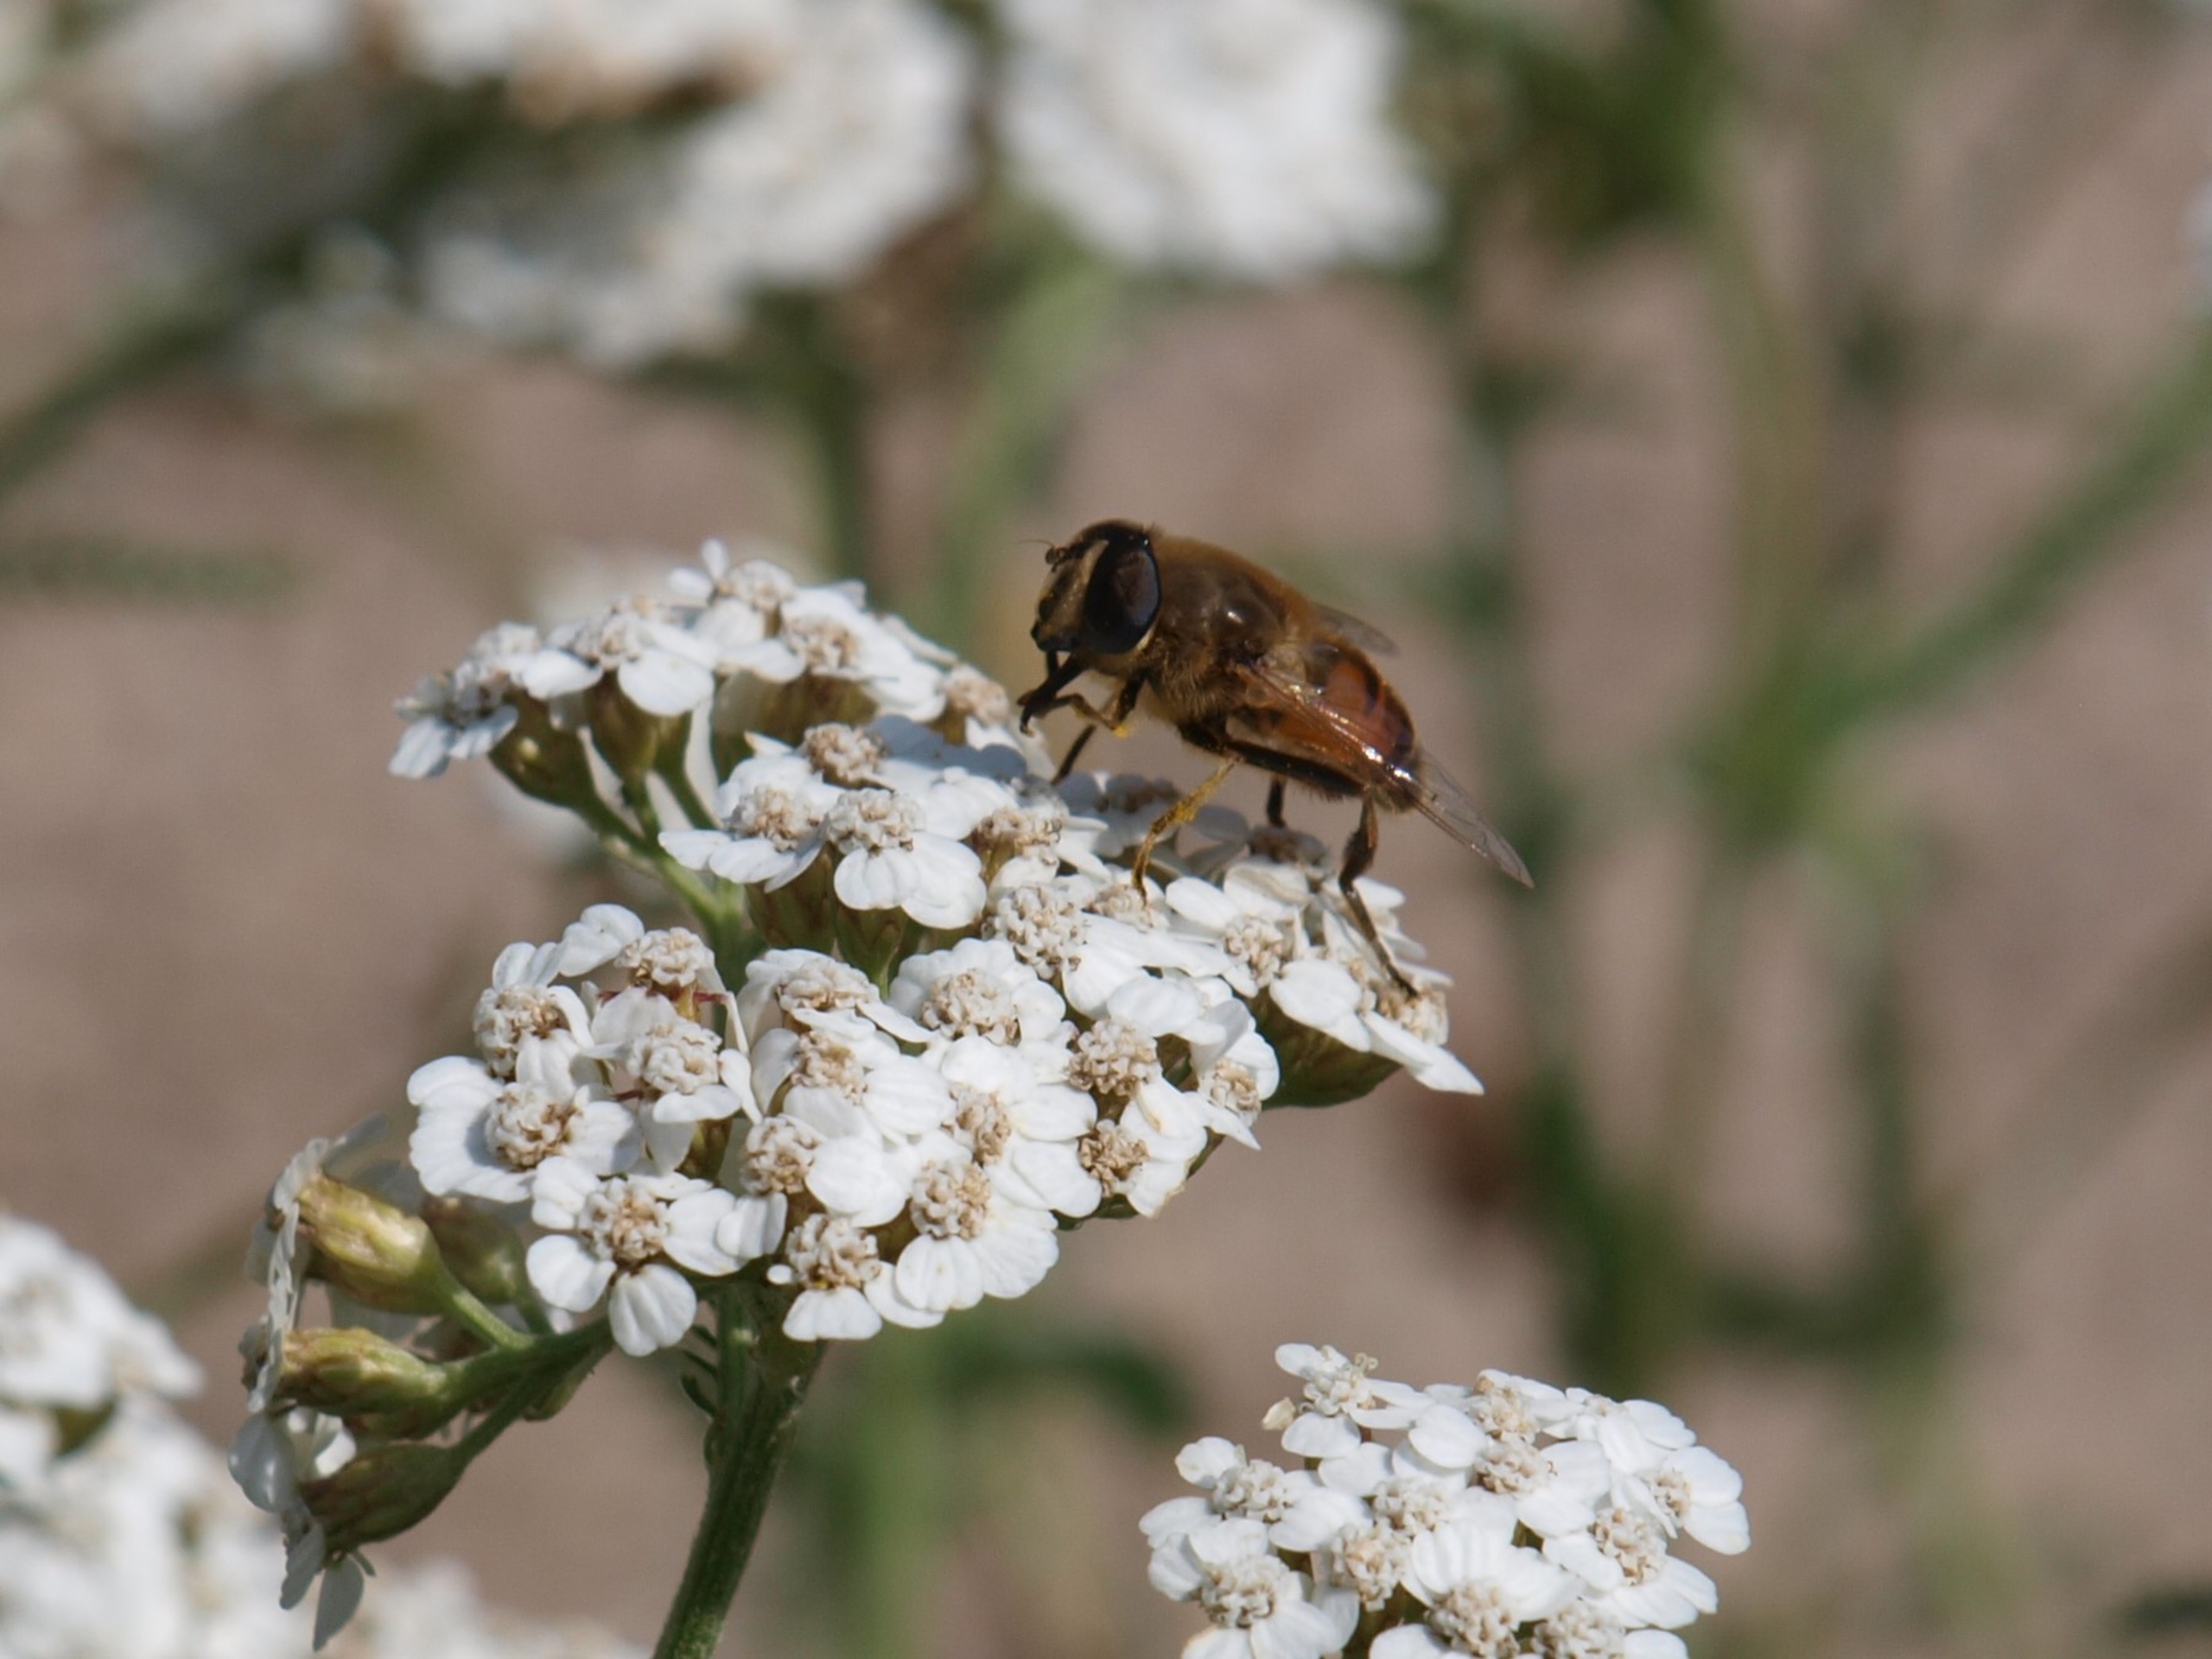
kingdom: Animalia
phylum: Arthropoda
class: Insecta
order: Diptera
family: Syrphidae
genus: Eristalis
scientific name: Eristalis tenax
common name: Droneflue
